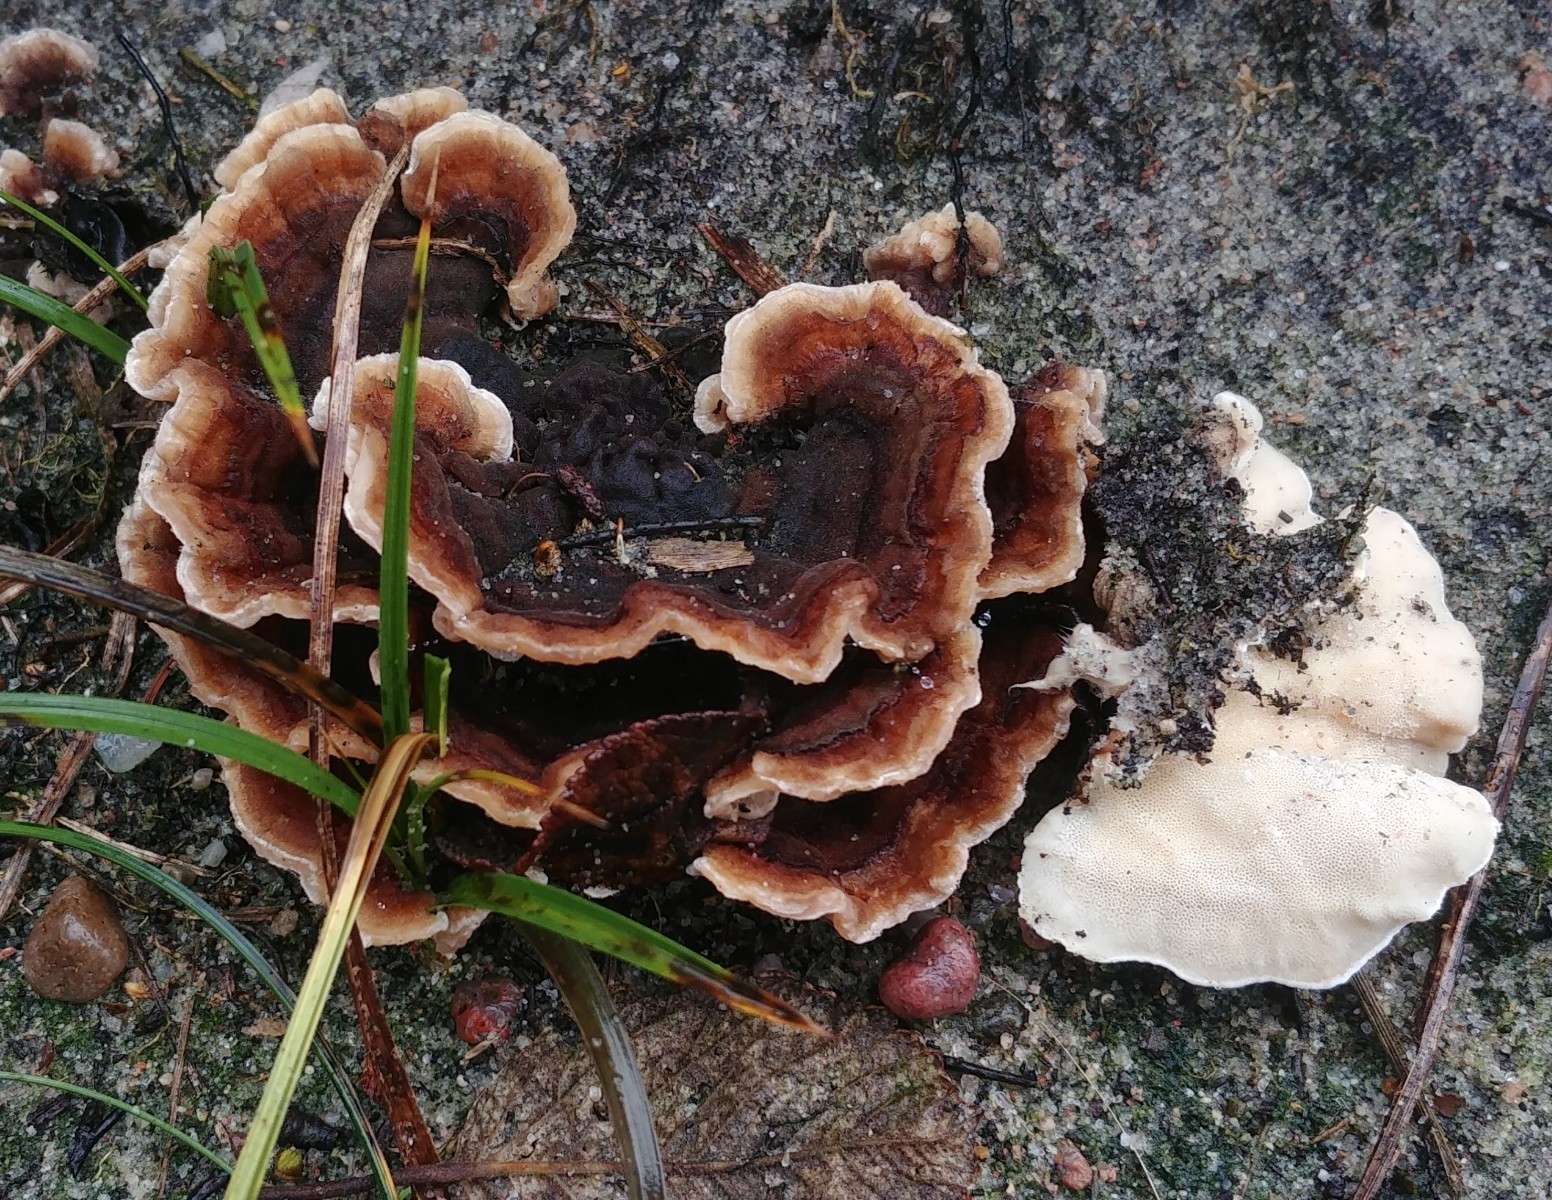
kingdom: Fungi
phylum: Basidiomycota
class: Agaricomycetes
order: Polyporales
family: Polyporaceae
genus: Trametes
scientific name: Trametes versicolor
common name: broget læderporesvamp
